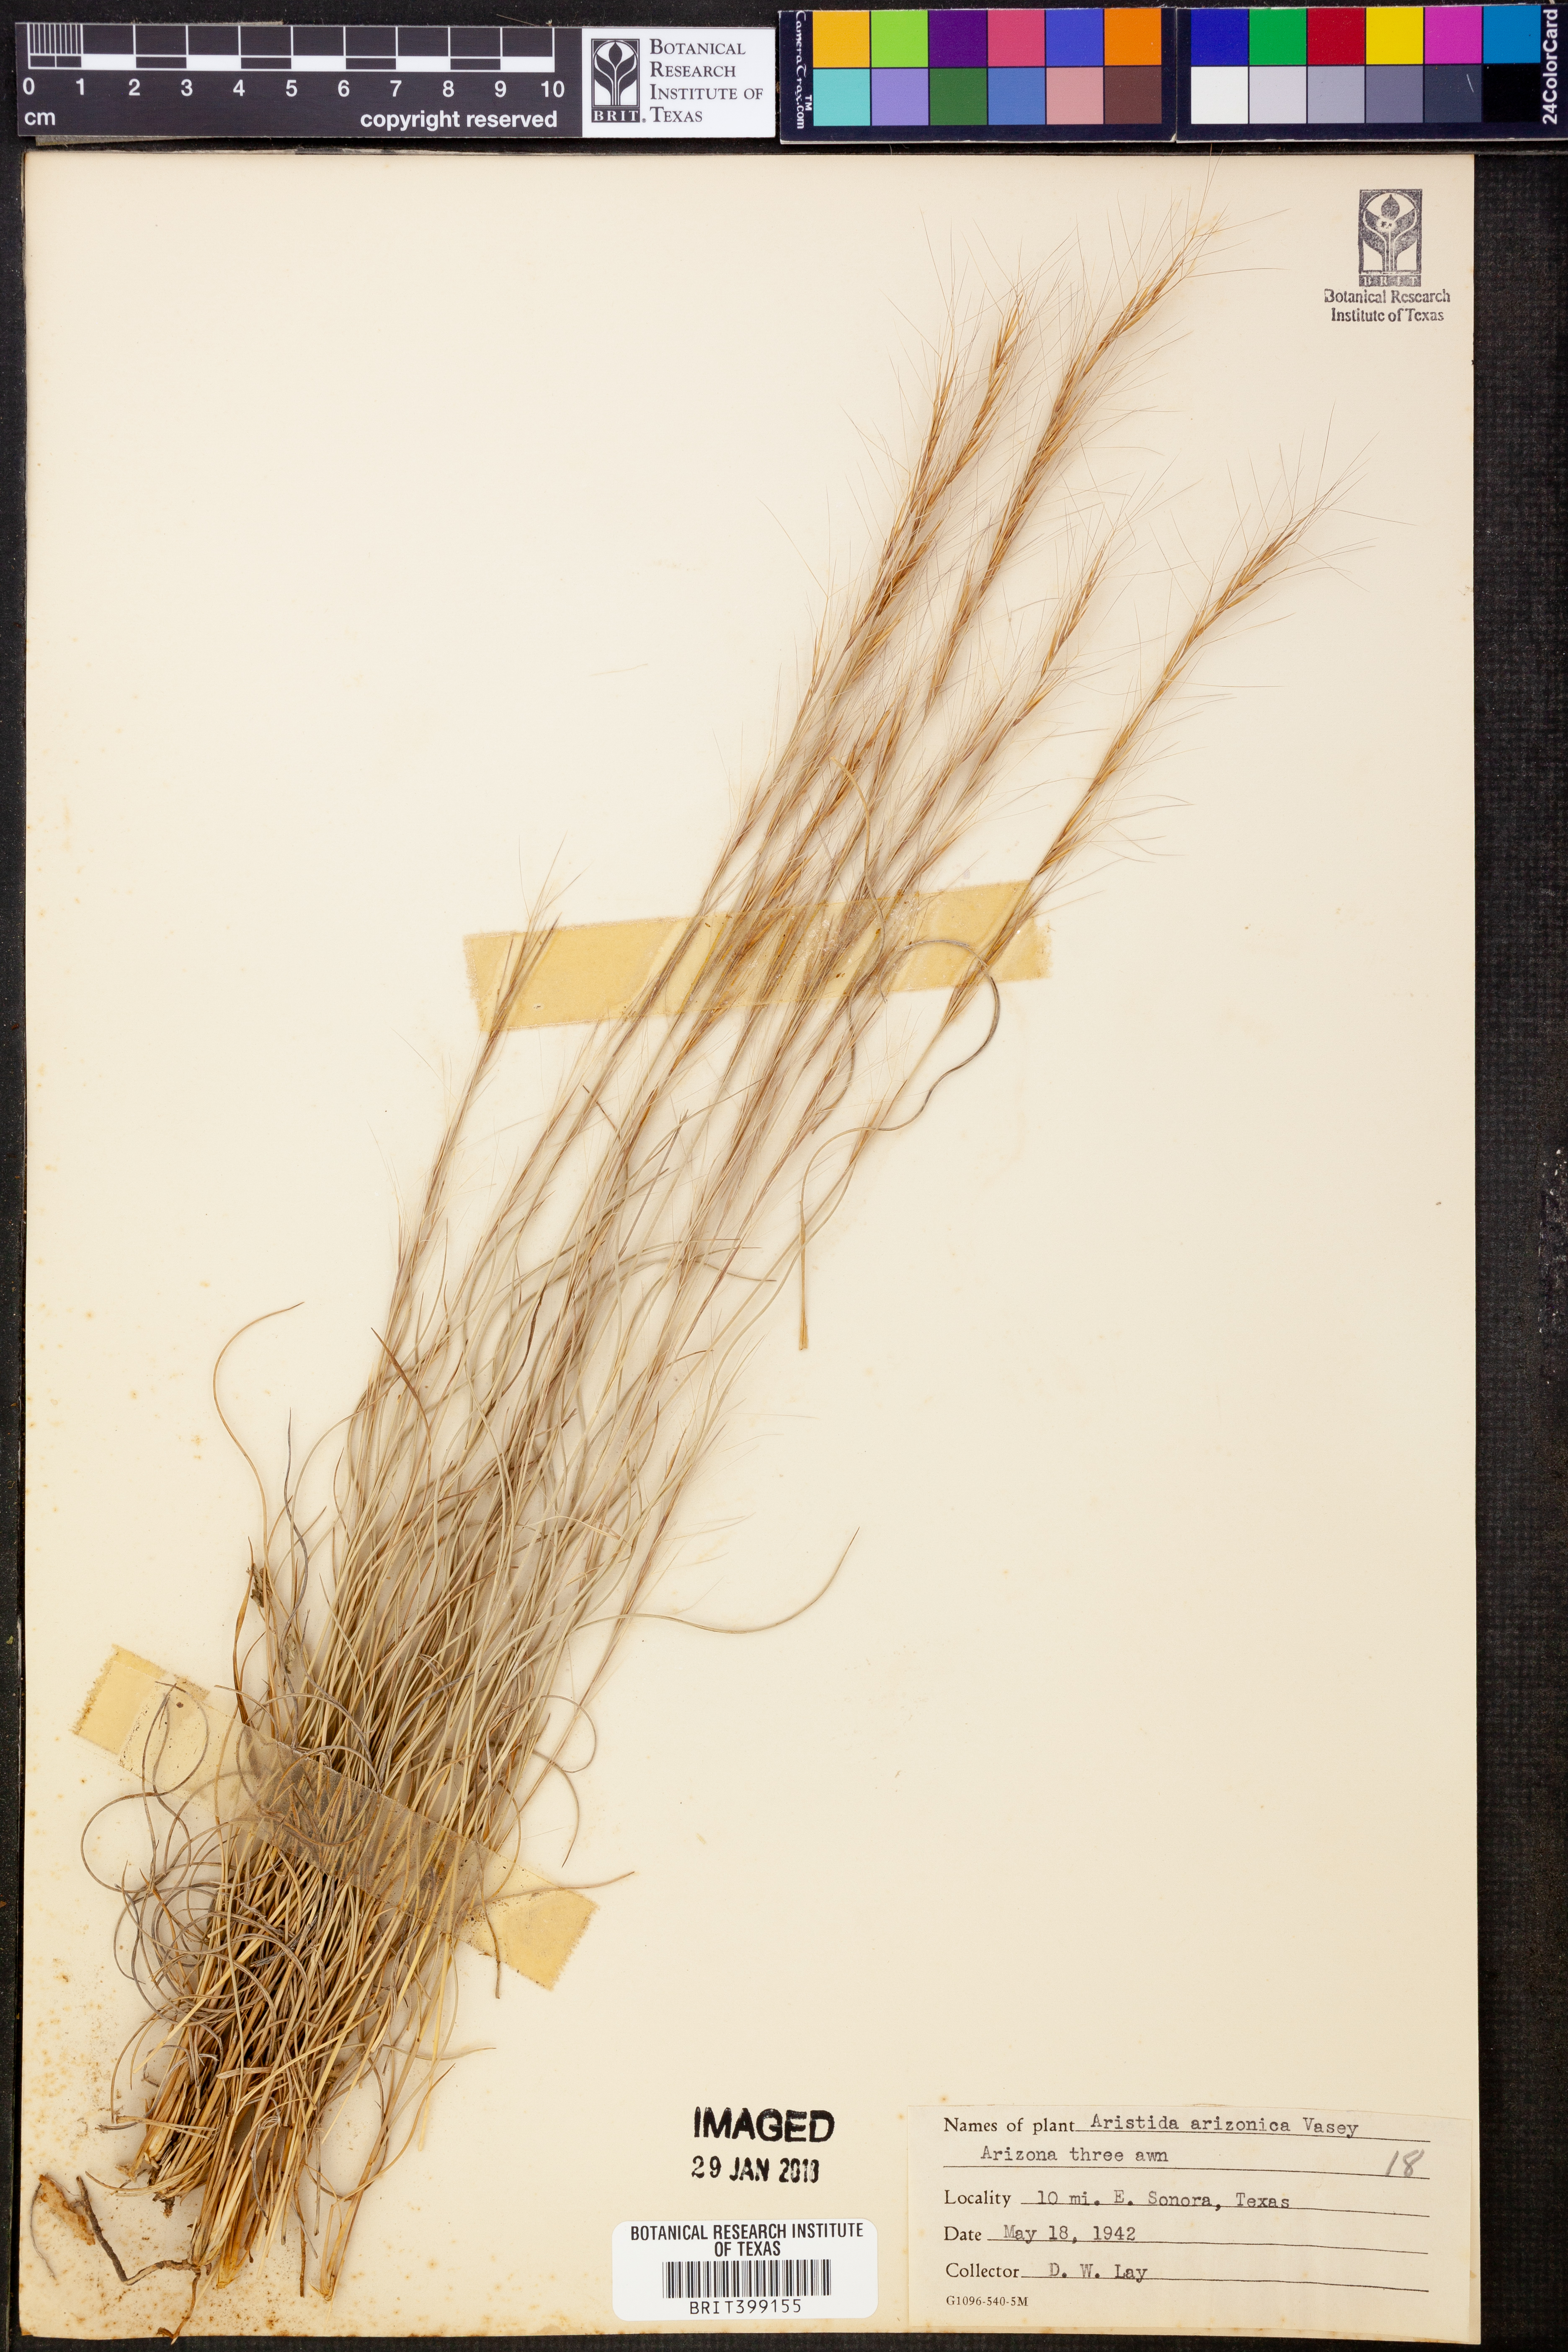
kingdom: Plantae
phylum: Tracheophyta
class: Liliopsida
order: Poales
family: Poaceae
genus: Aristida
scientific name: Aristida arizonica
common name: Arizona threeawn
